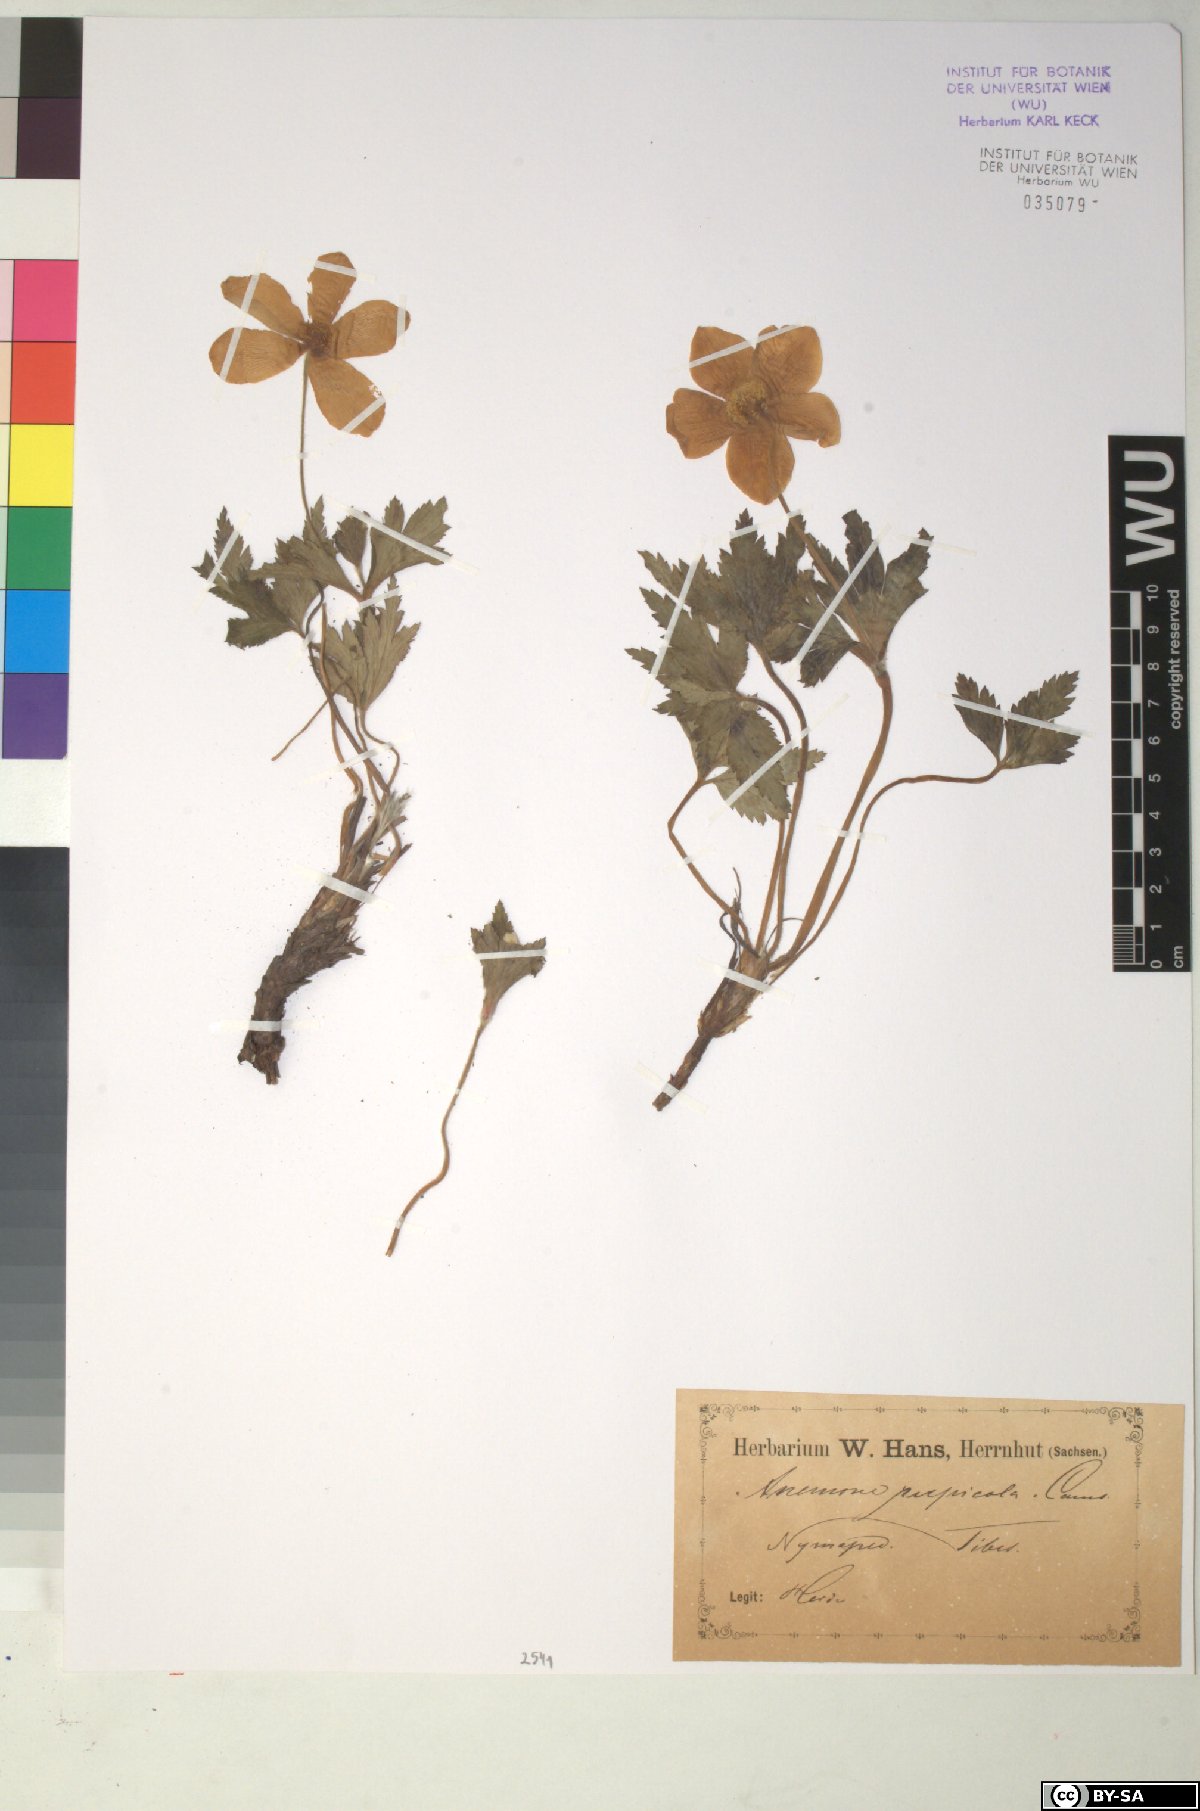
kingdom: Plantae
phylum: Tracheophyta
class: Magnoliopsida
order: Ranunculales
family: Ranunculaceae
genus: Eriocapitella
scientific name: Eriocapitella rupicola
